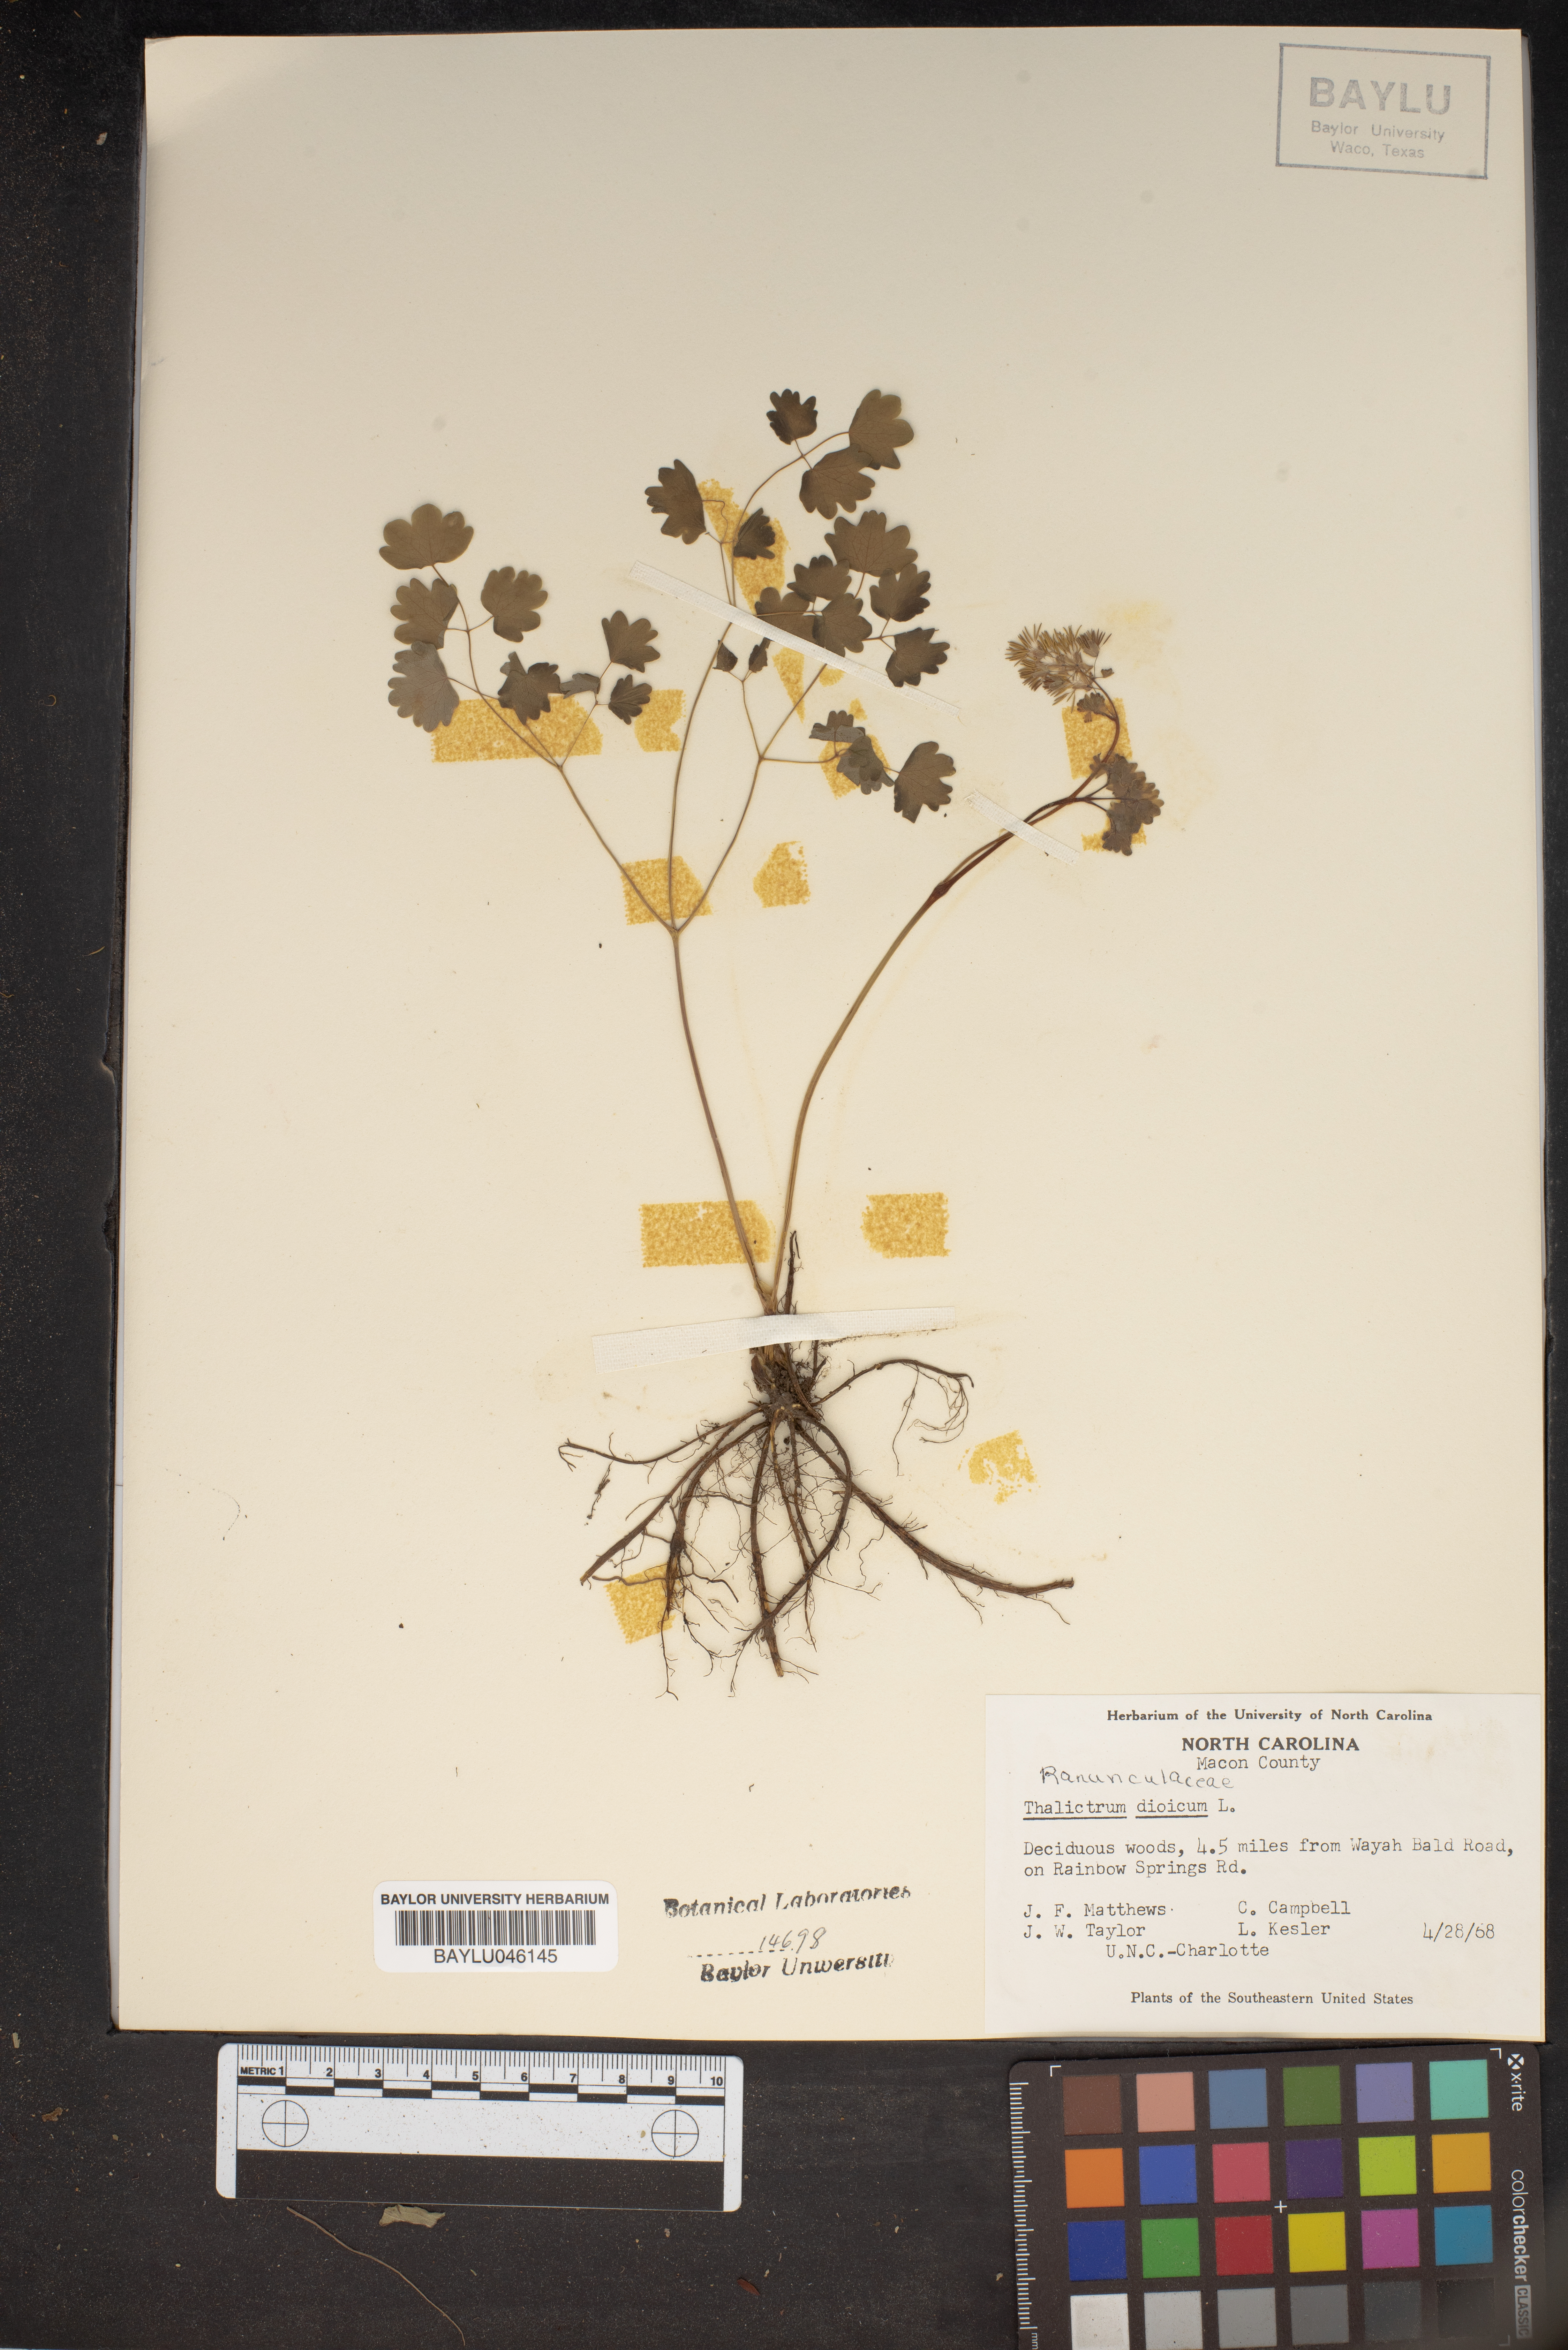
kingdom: Plantae
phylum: Tracheophyta
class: Magnoliopsida
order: Ranunculales
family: Ranunculaceae
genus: Thalictrum
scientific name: Thalictrum dioicum
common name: Early meadow-rue
